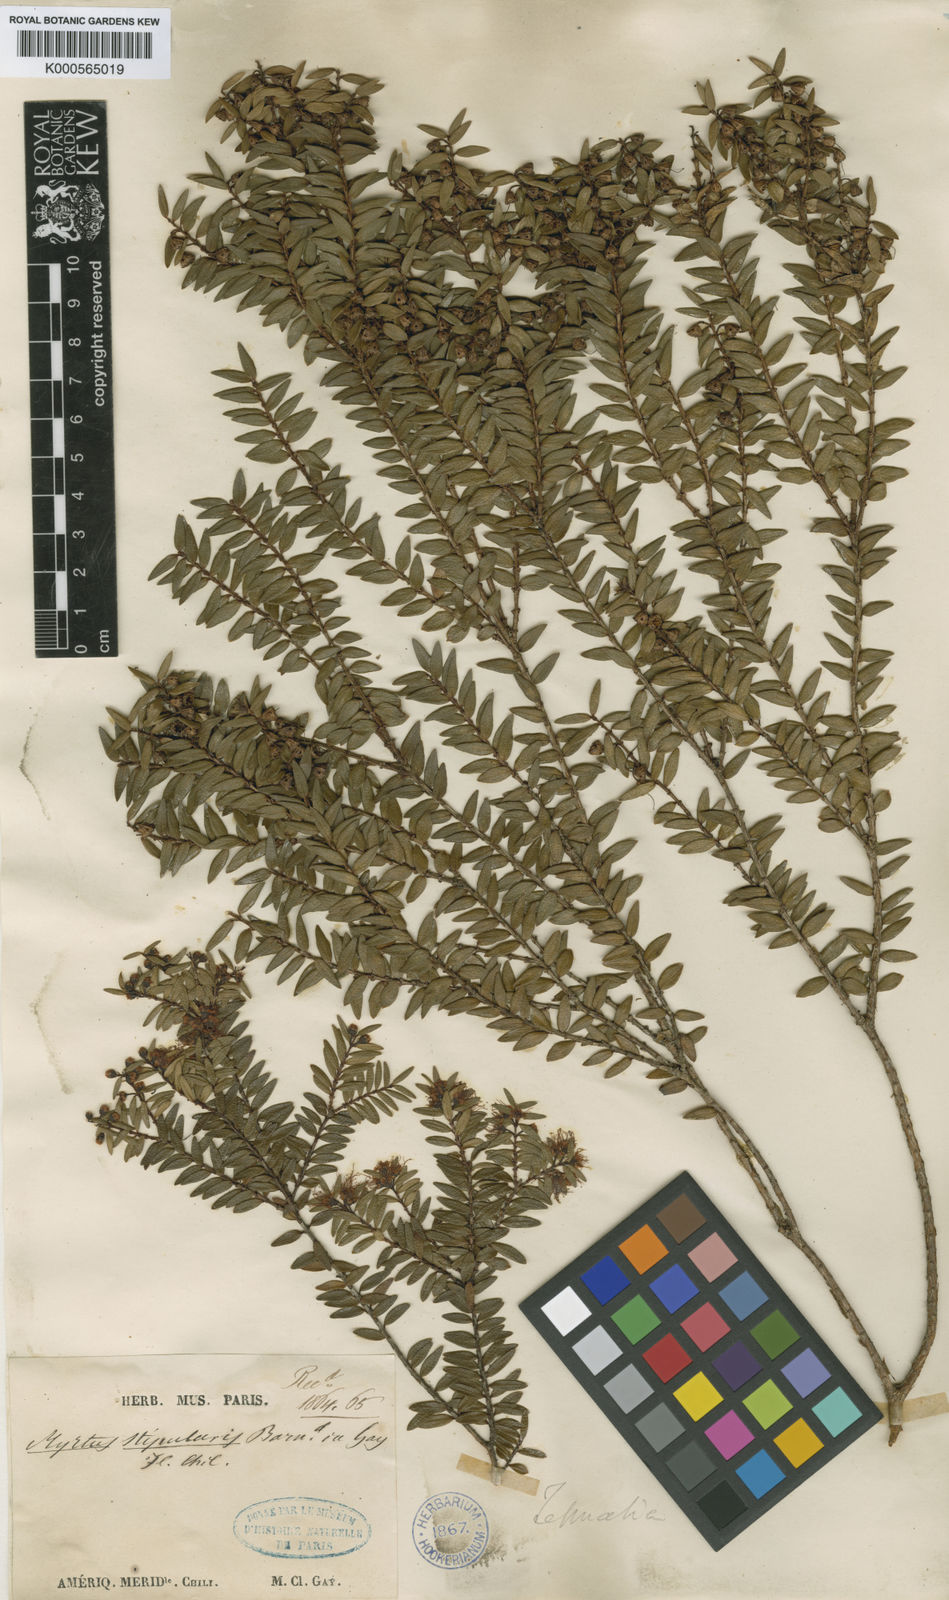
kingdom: Plantae
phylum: Tracheophyta
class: Magnoliopsida
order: Myrtales
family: Myrtaceae
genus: Tepualia
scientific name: Tepualia stipularis
